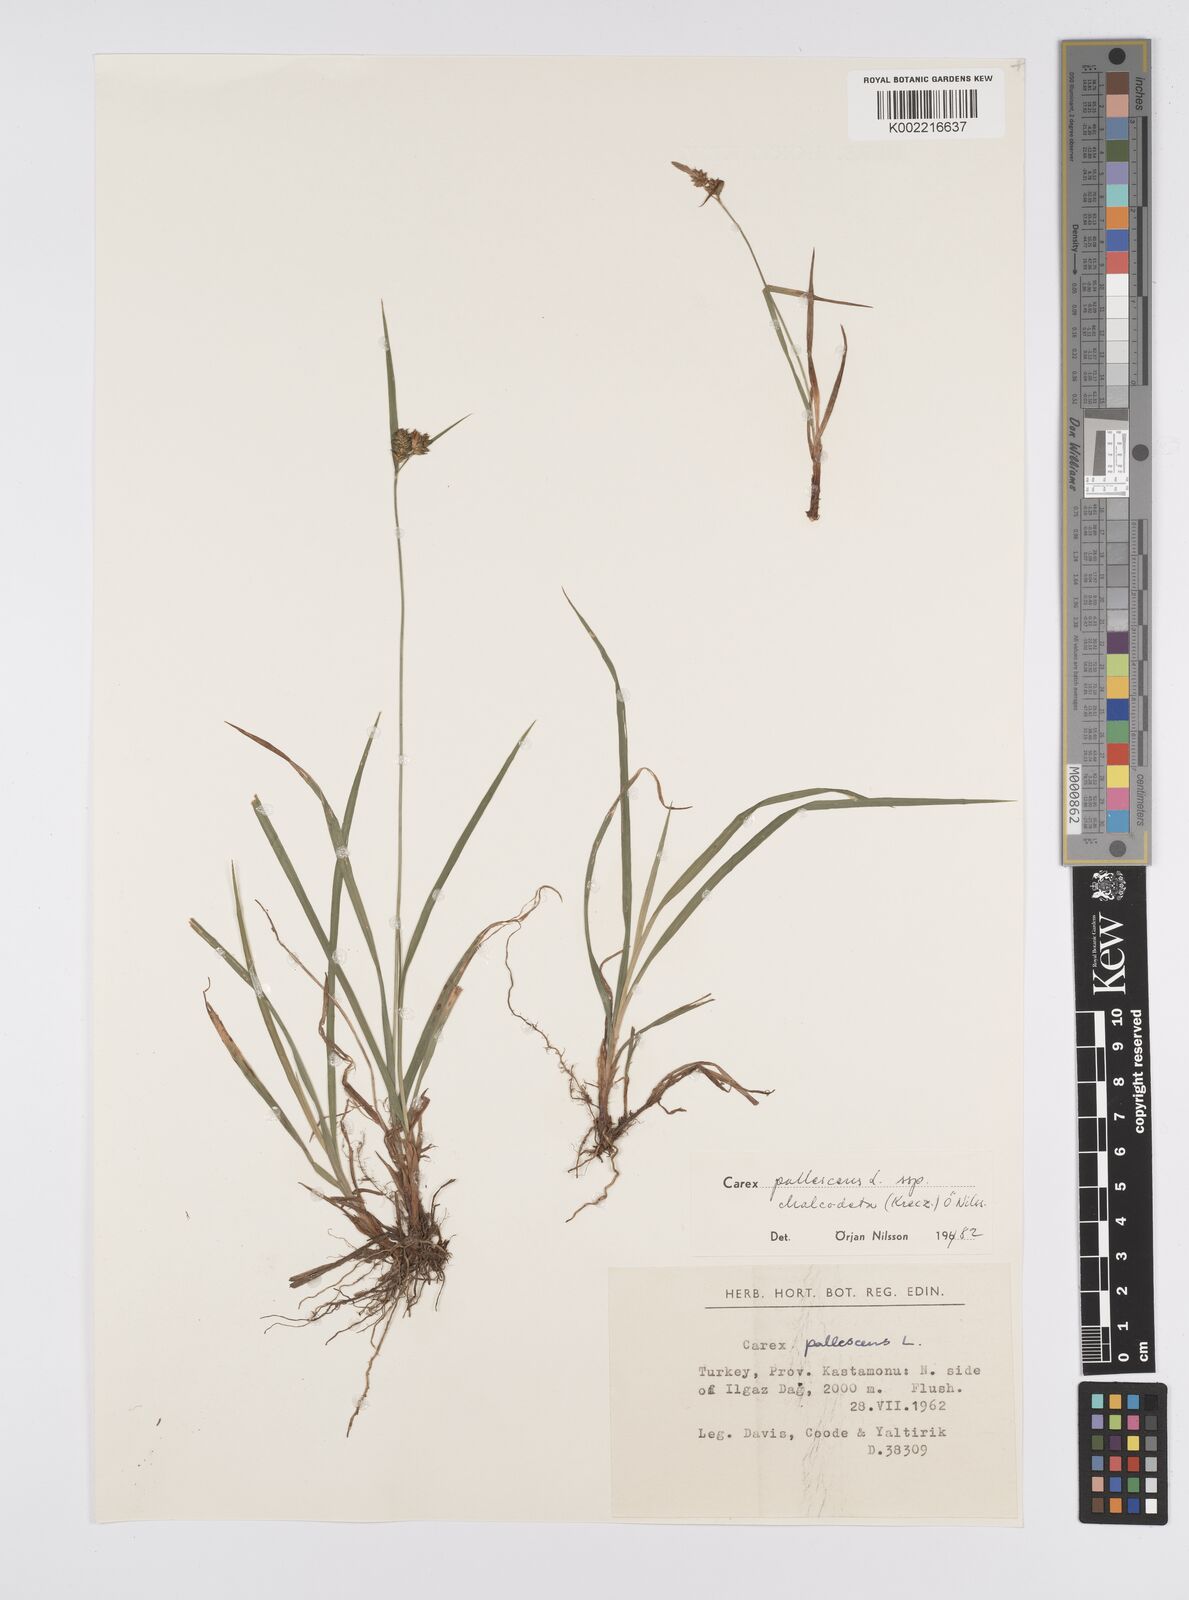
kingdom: Plantae
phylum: Tracheophyta
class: Liliopsida
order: Poales
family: Cyperaceae
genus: Carex
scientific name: Carex pallescens
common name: Pale sedge
